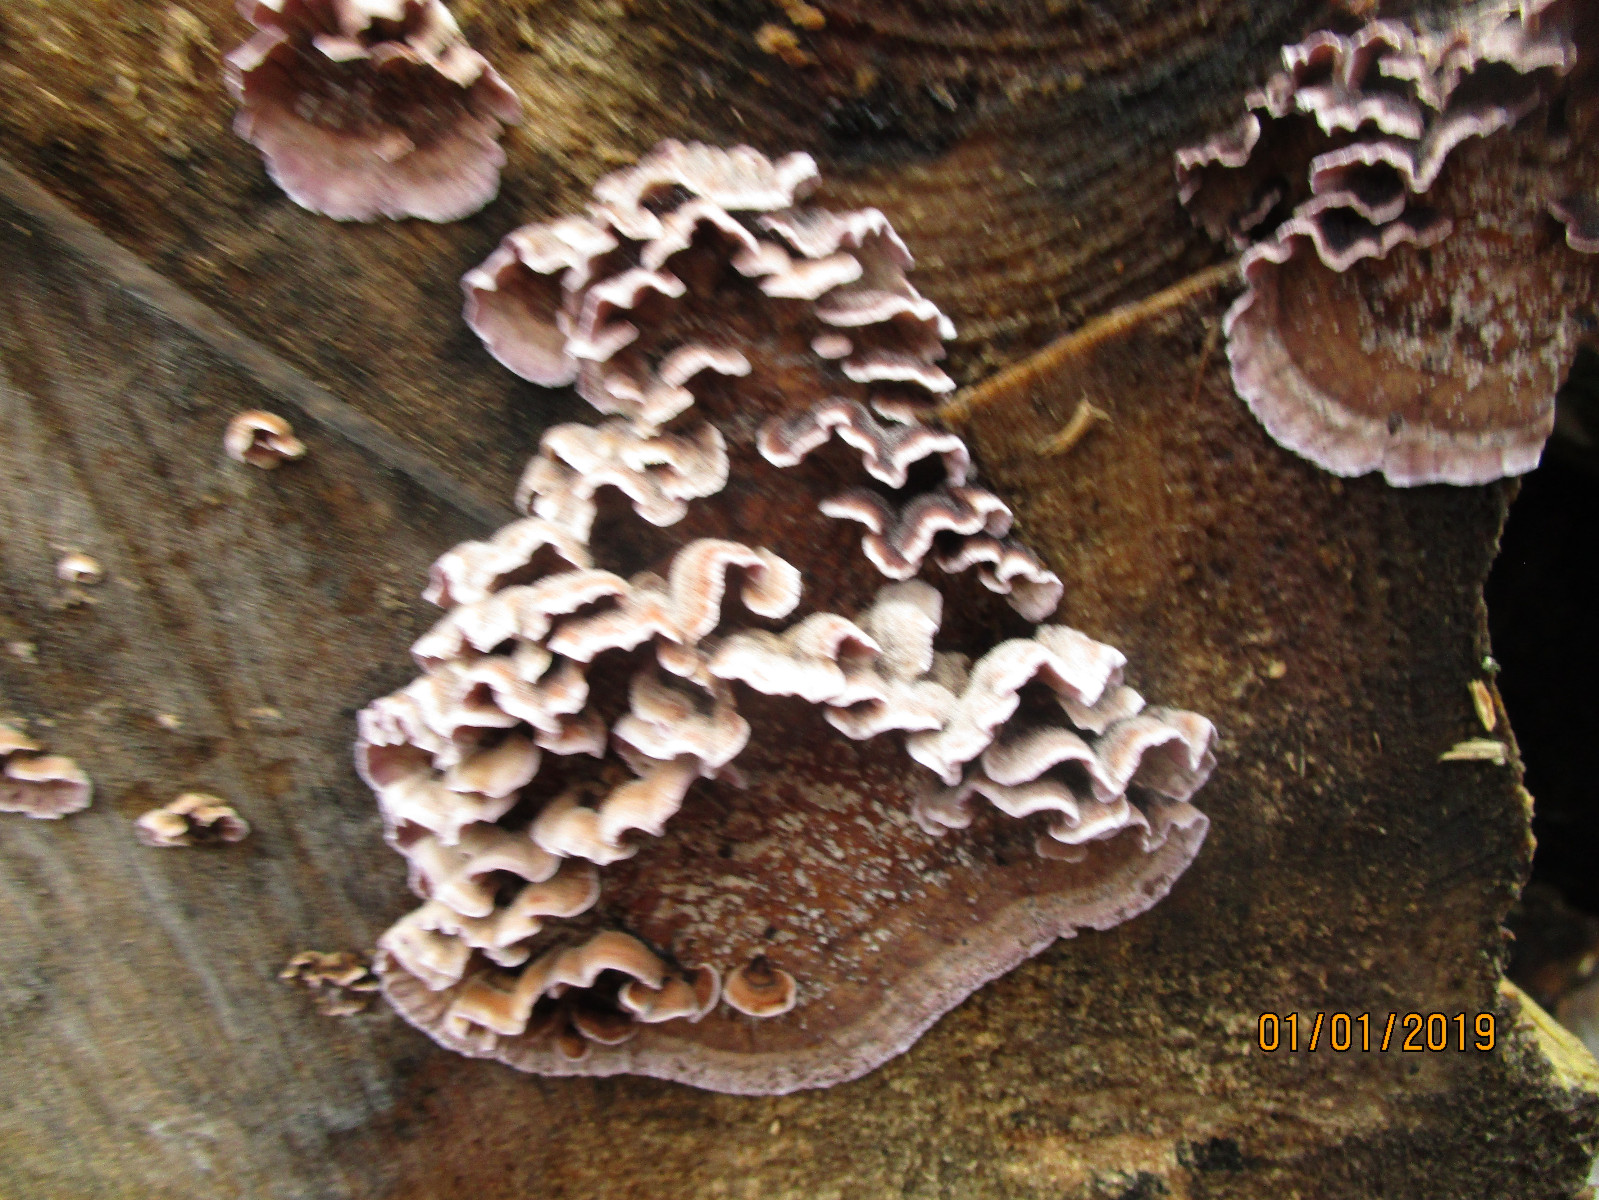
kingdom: Fungi
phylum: Basidiomycota
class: Agaricomycetes
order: Agaricales
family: Cyphellaceae
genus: Chondrostereum
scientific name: Chondrostereum purpureum
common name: purpurlædersvamp
